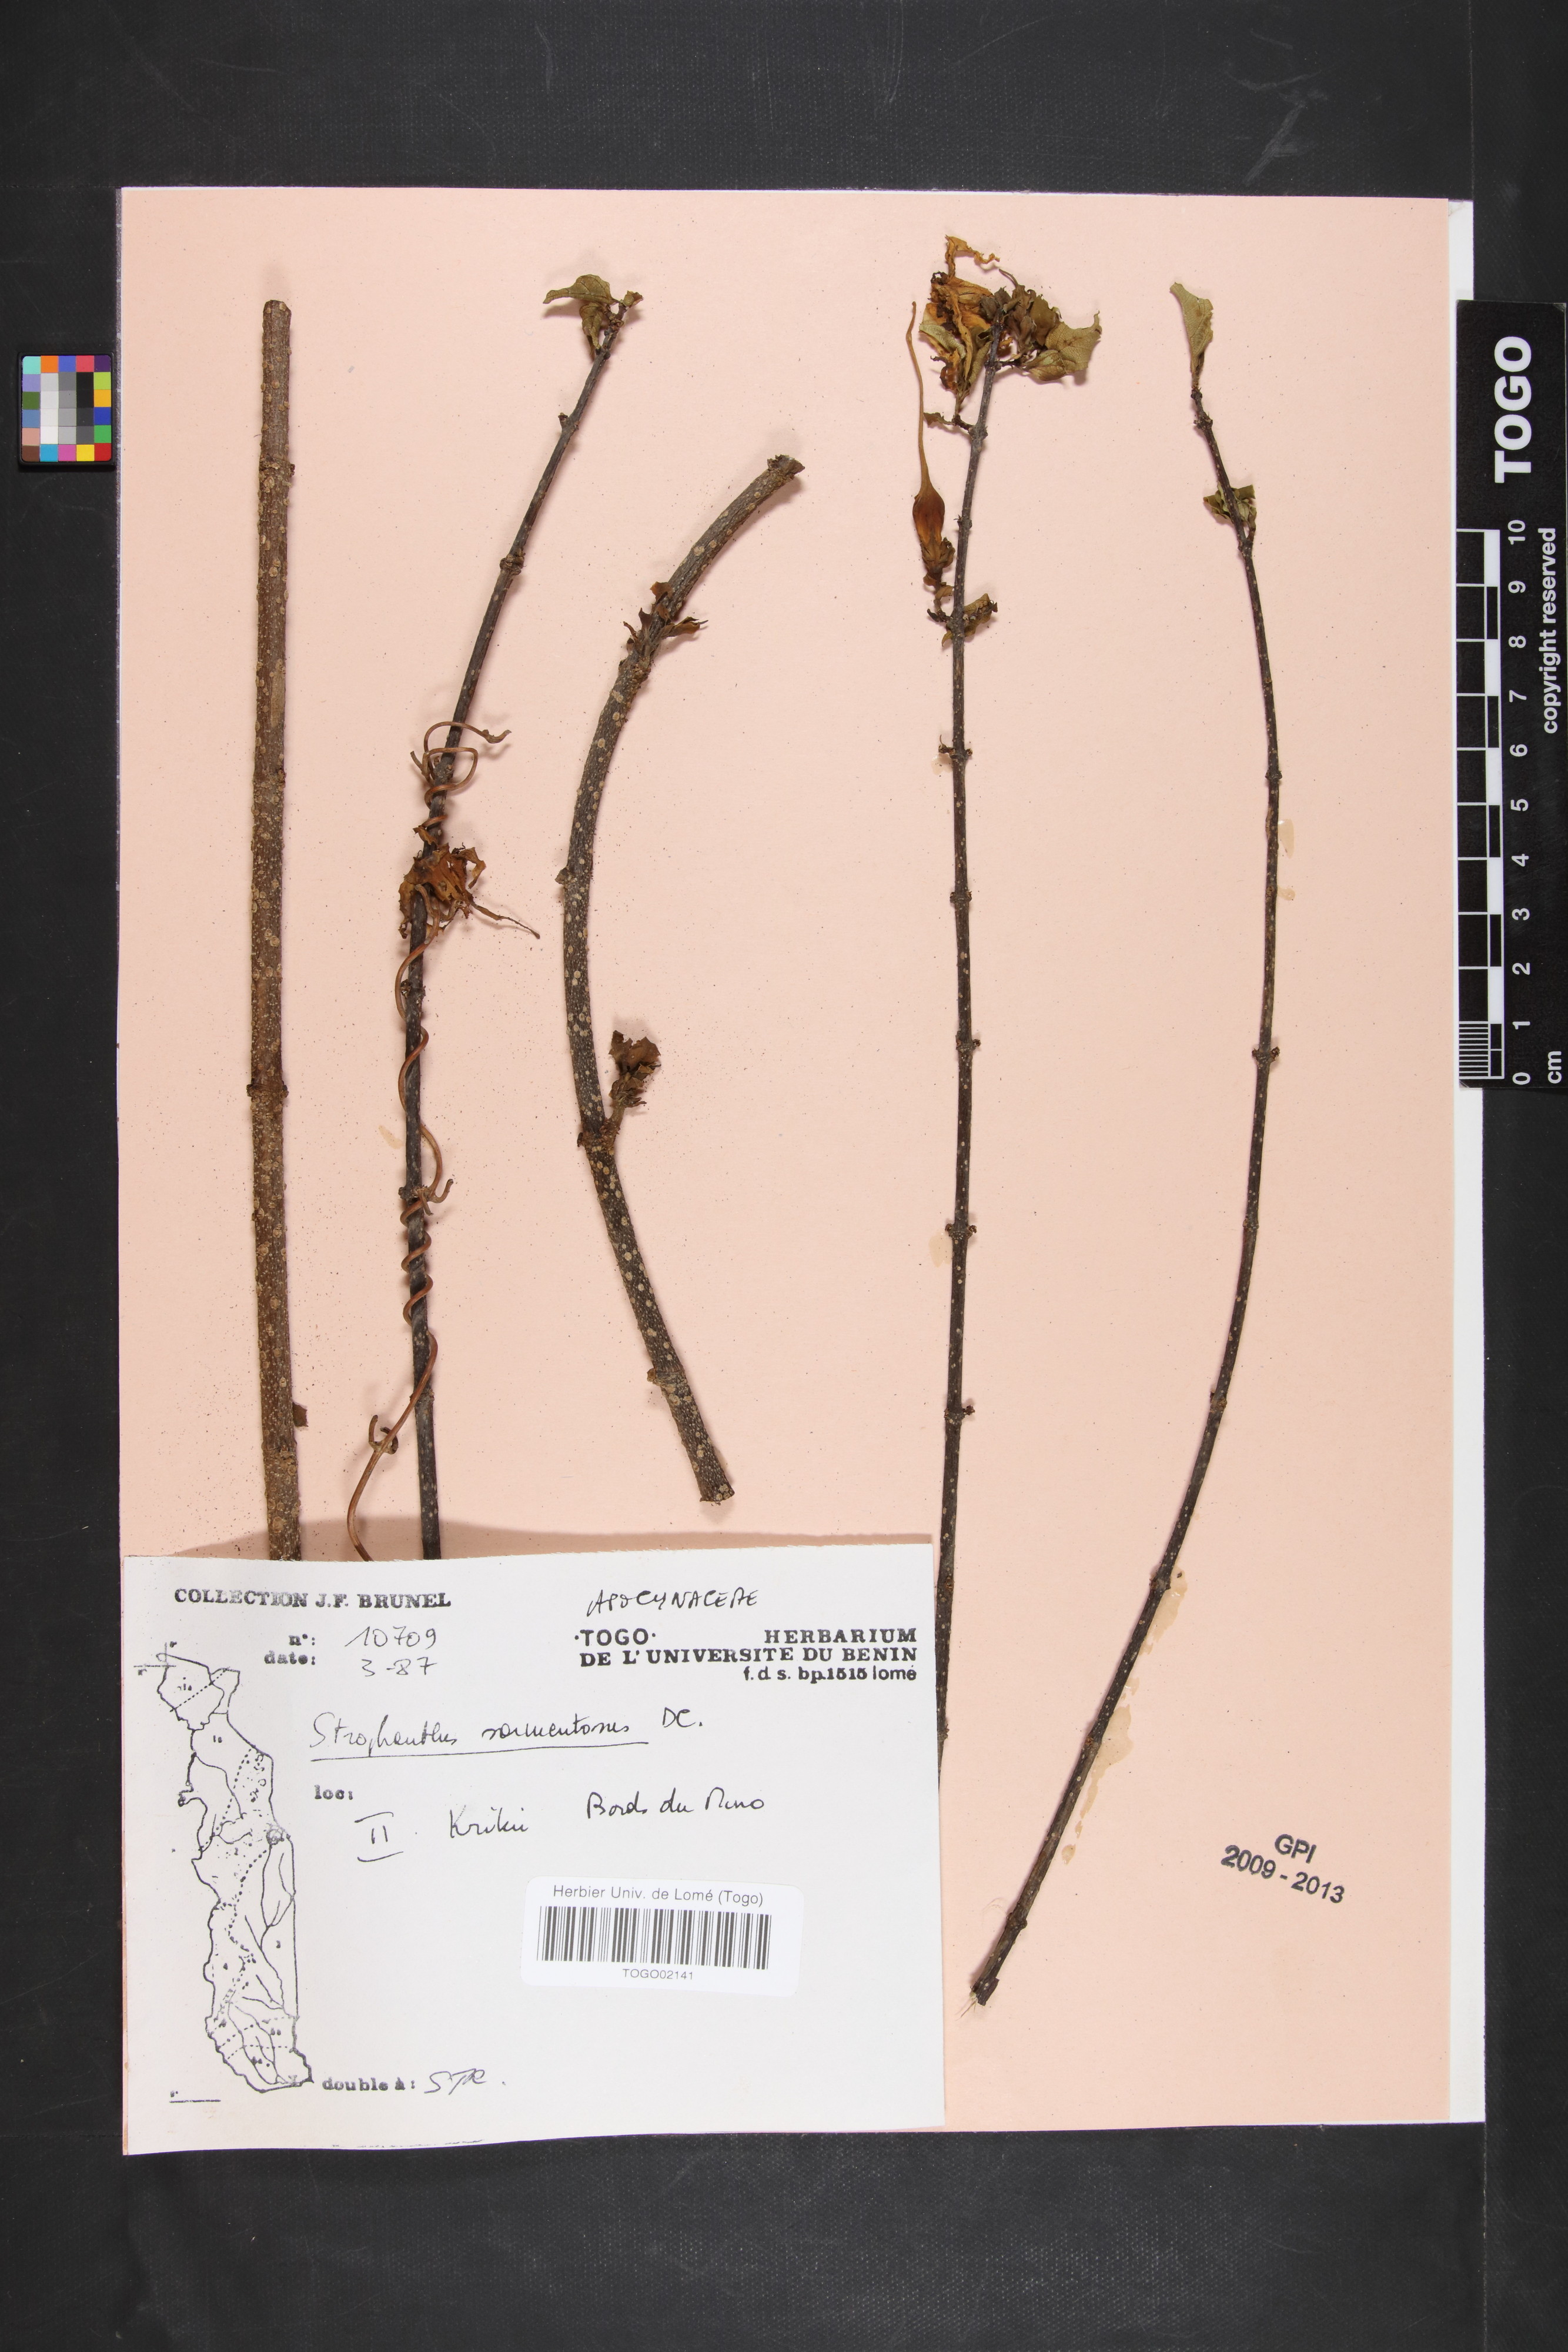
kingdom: Plantae
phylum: Tracheophyta
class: Magnoliopsida
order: Gentianales
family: Apocynaceae
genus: Strophanthus
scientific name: Strophanthus sarmentosus
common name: Poison arrowvine
